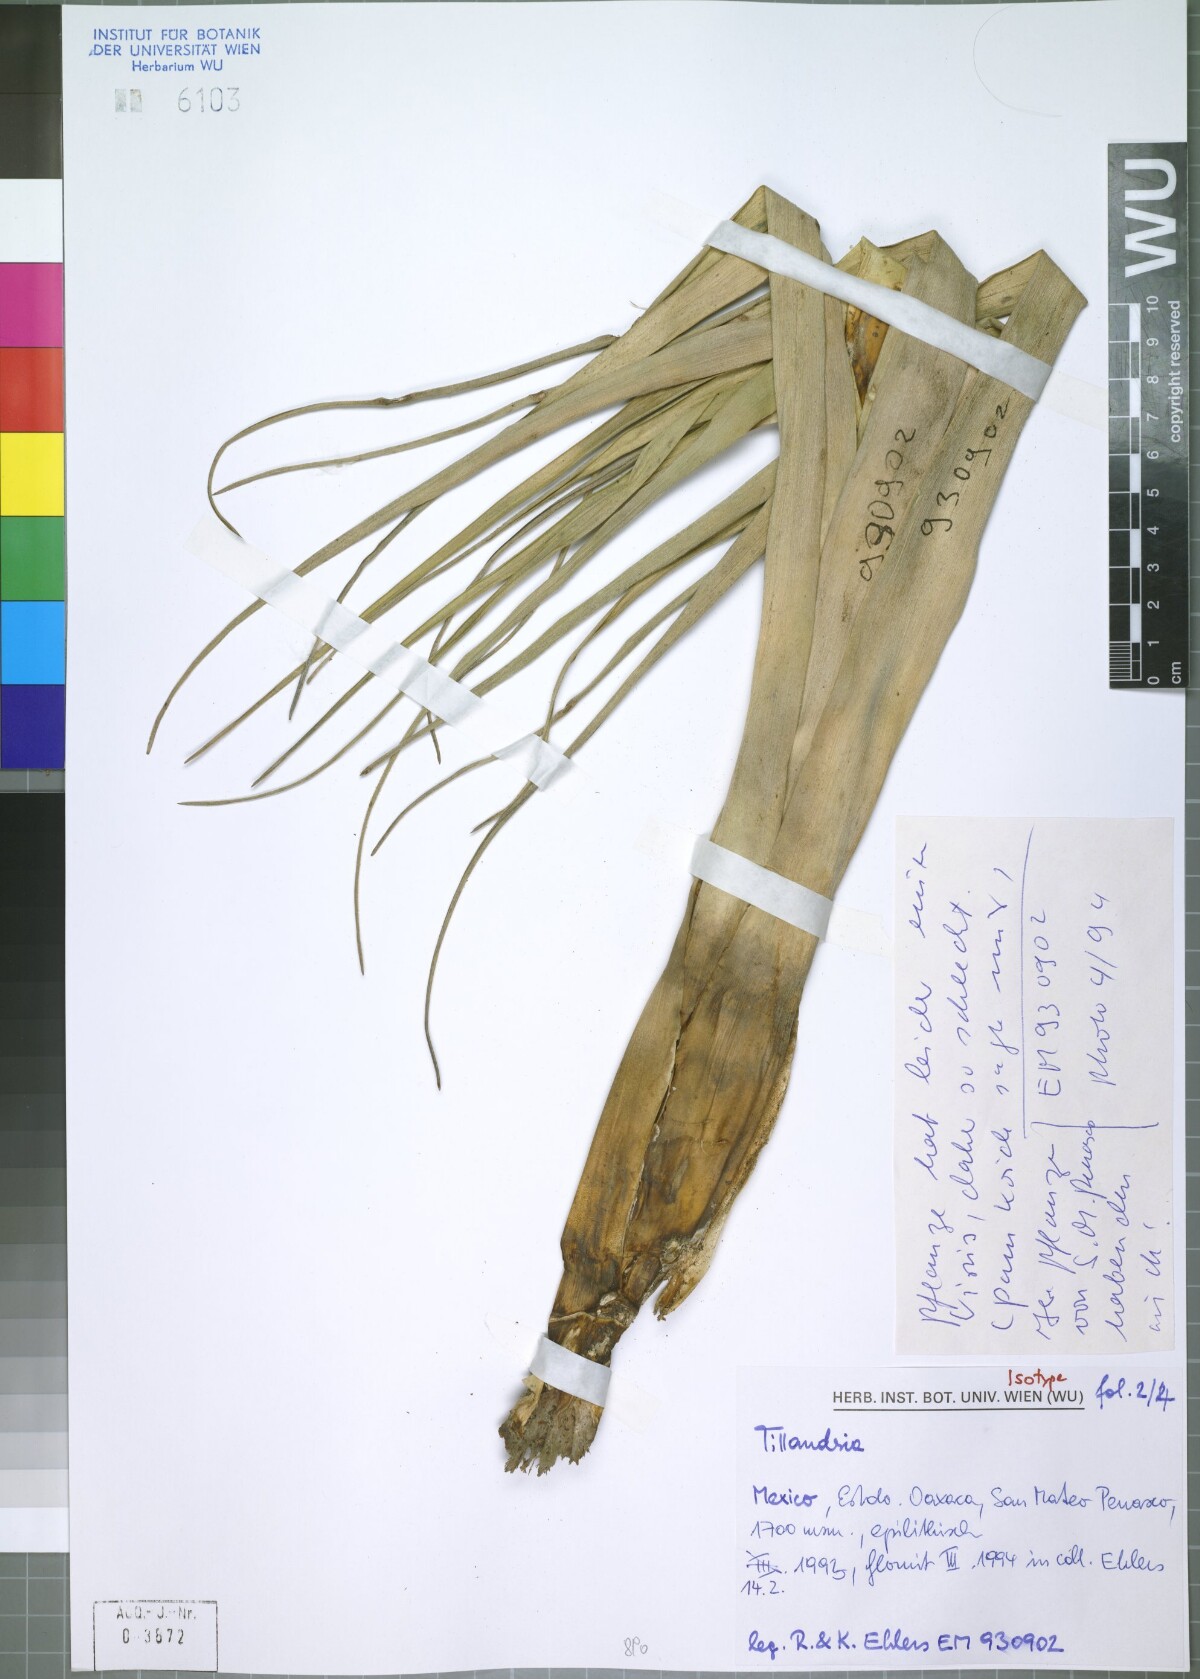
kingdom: Plantae
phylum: Tracheophyta
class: Liliopsida
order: Poales
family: Bromeliaceae
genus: Tillandsia
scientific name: Tillandsia celata
